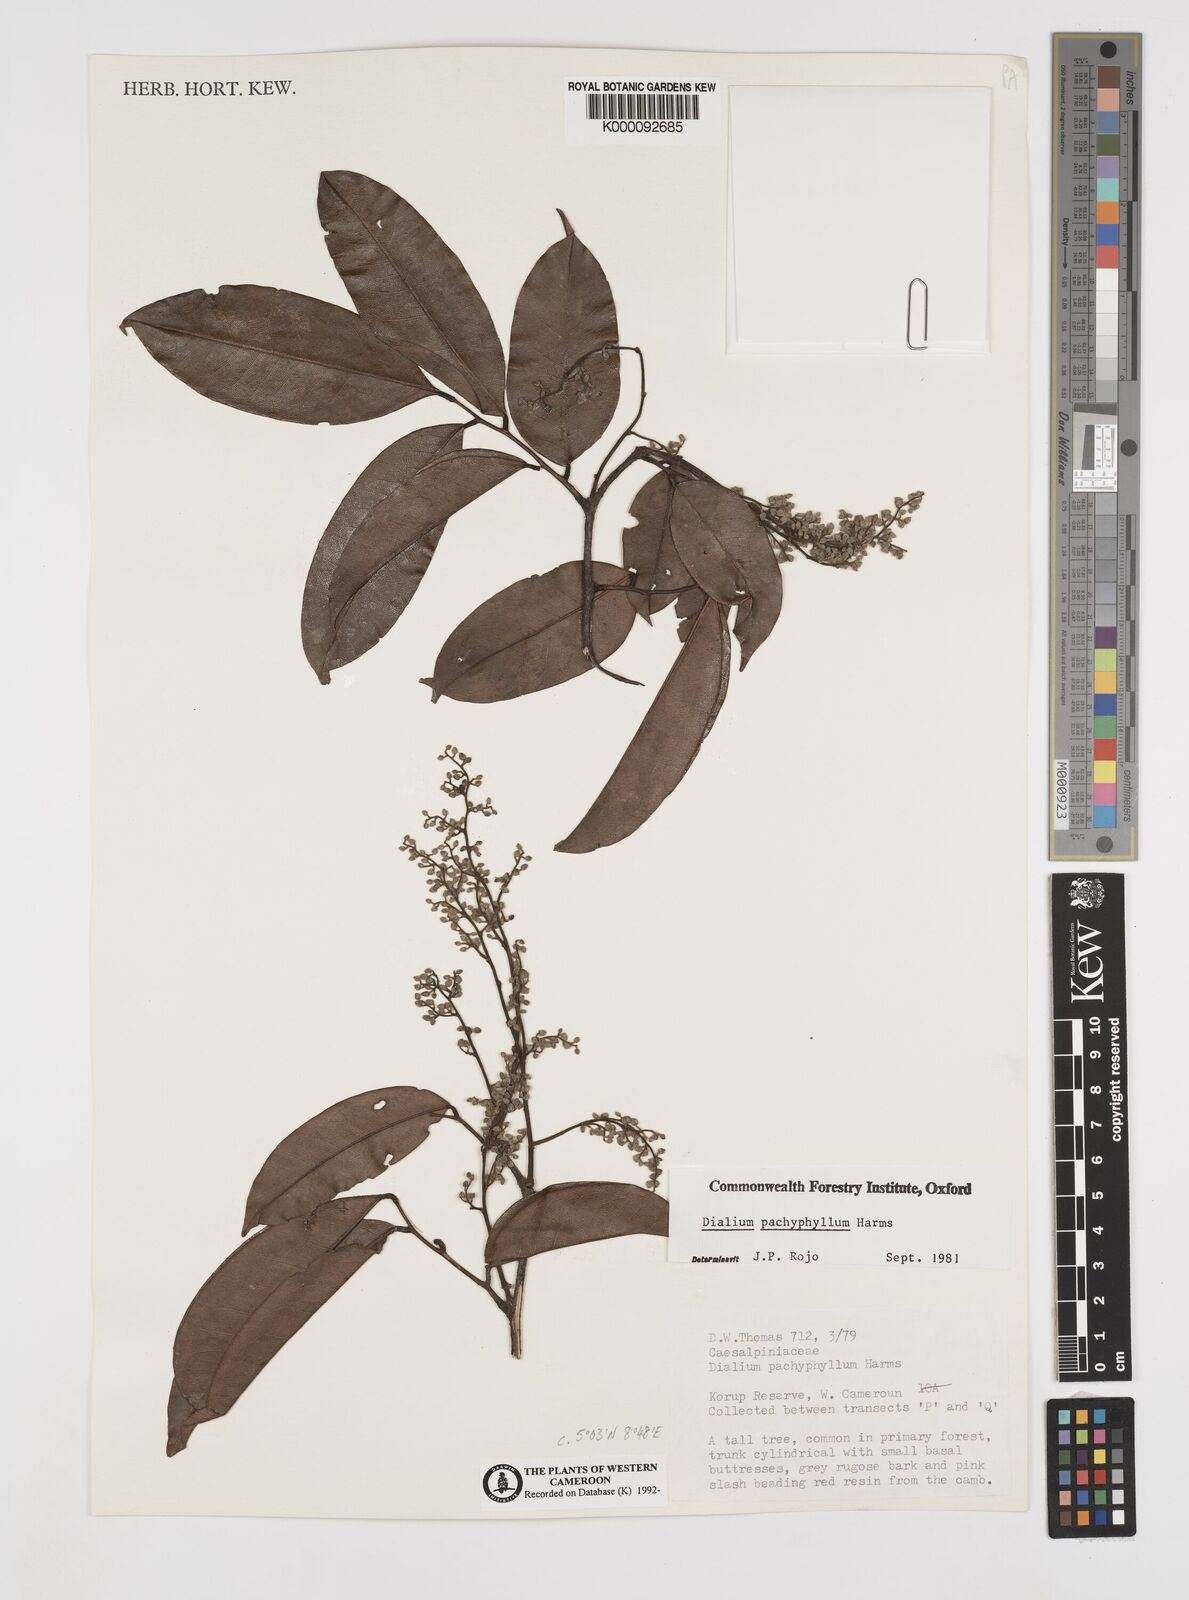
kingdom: Plantae
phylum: Tracheophyta
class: Magnoliopsida
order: Fabales
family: Fabaceae
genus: Dialium
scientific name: Dialium pachyphyllum
